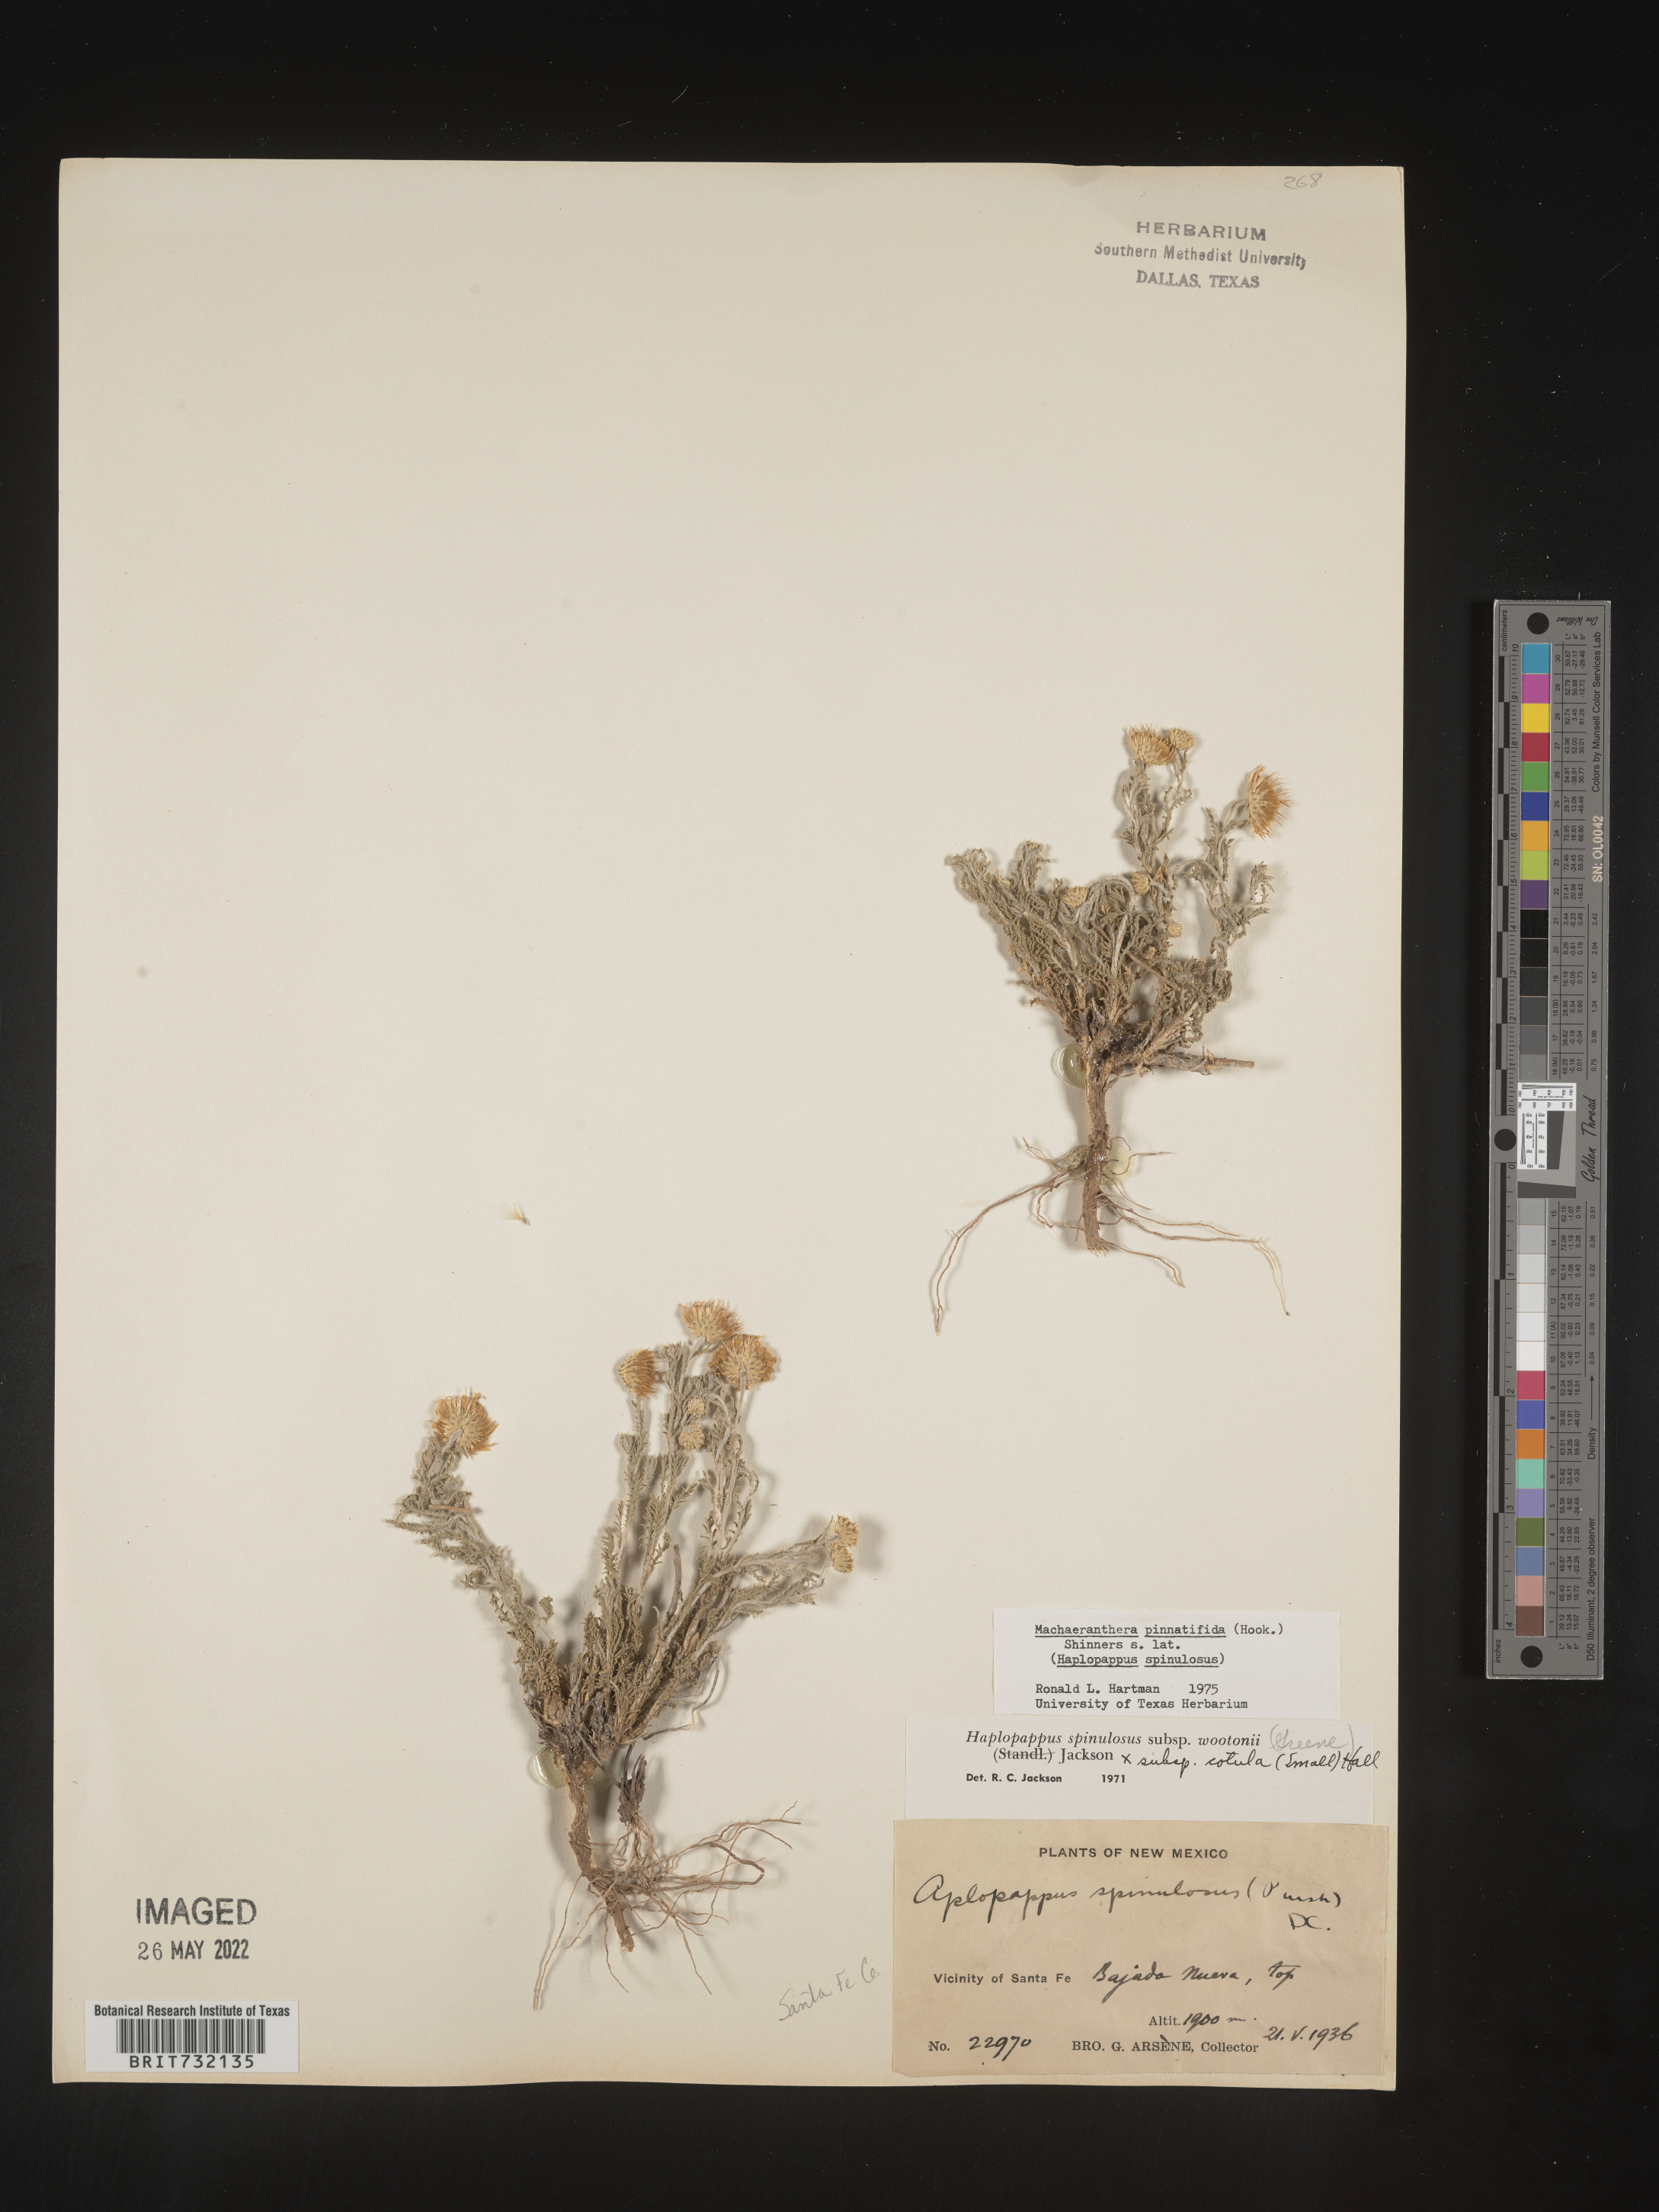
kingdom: Plantae
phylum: Tracheophyta
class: Magnoliopsida
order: Asterales
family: Asteraceae
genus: Xanthisma
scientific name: Xanthisma spinulosum
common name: Spiny goldenweed
